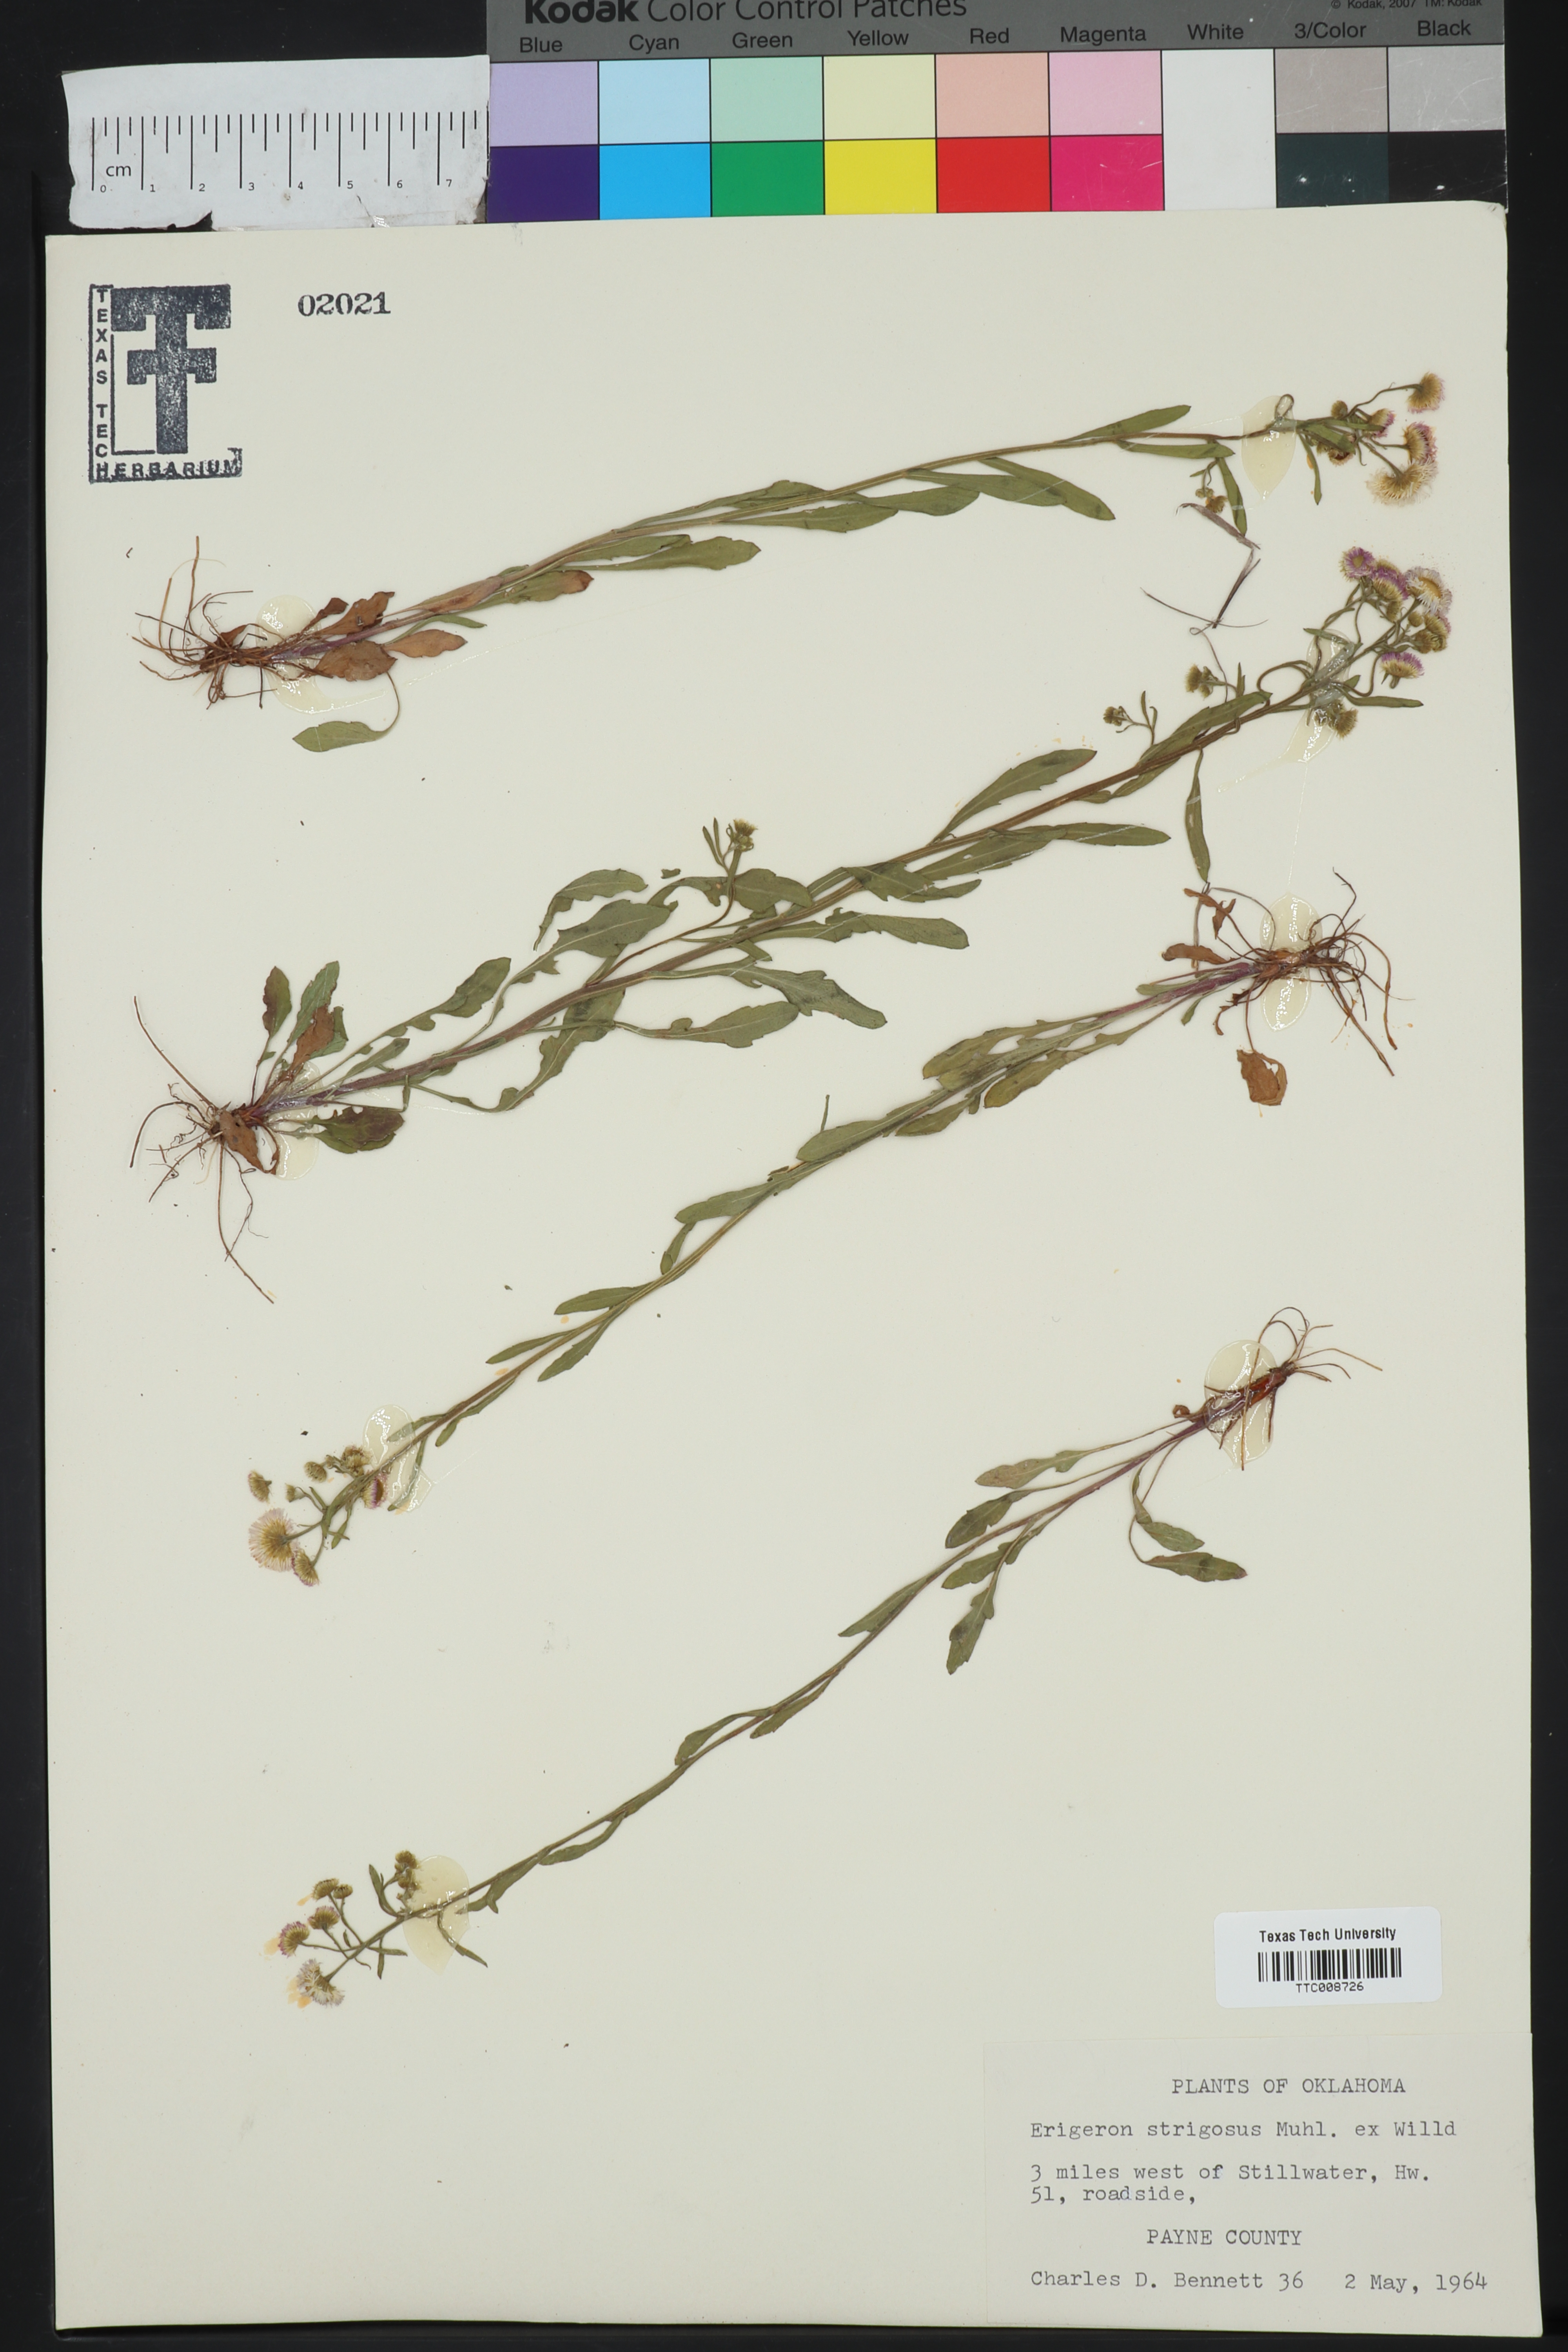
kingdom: Plantae
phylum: Tracheophyta
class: Magnoliopsida
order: Asterales
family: Asteraceae
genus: Erigeron
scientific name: Erigeron strigosus
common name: Common eastern fleabane
